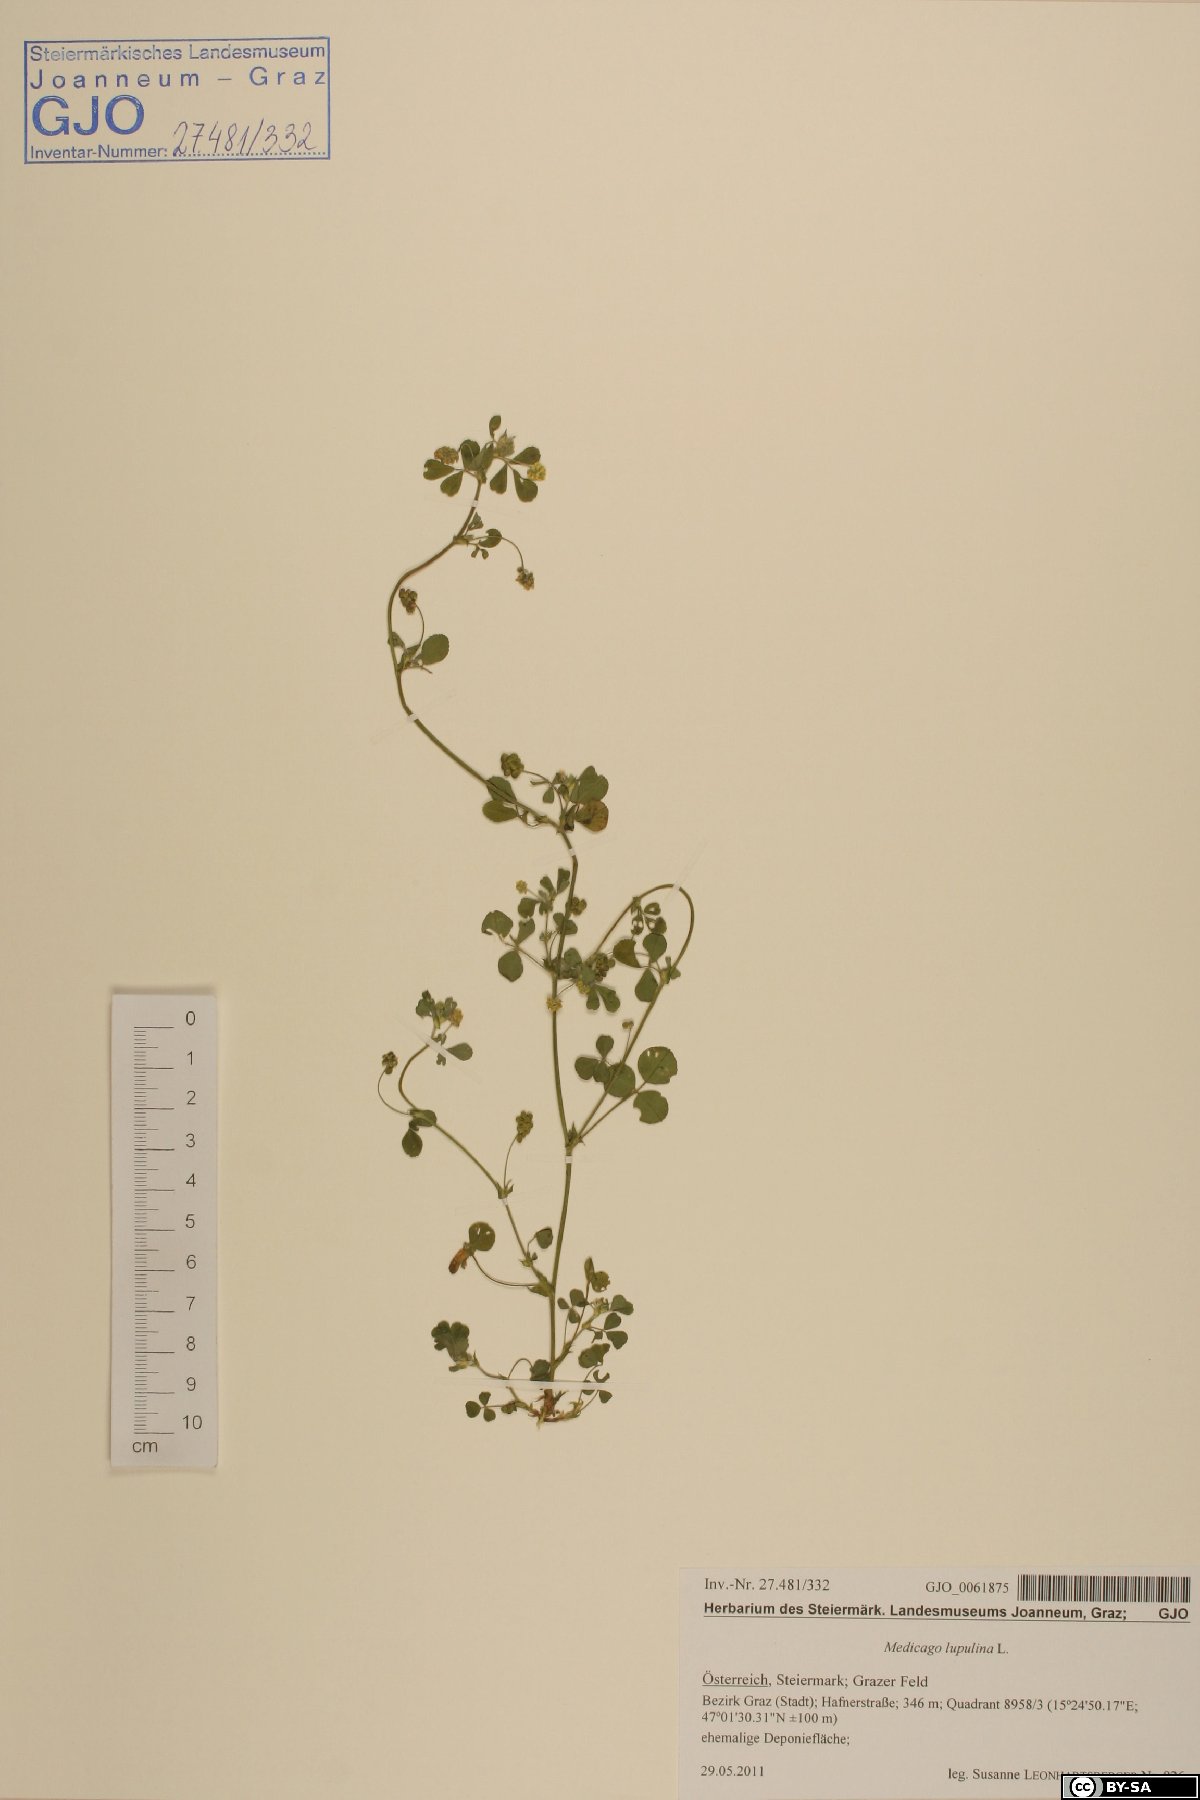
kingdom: Plantae
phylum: Tracheophyta
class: Magnoliopsida
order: Fabales
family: Fabaceae
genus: Medicago
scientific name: Medicago lupulina
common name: Black medick
